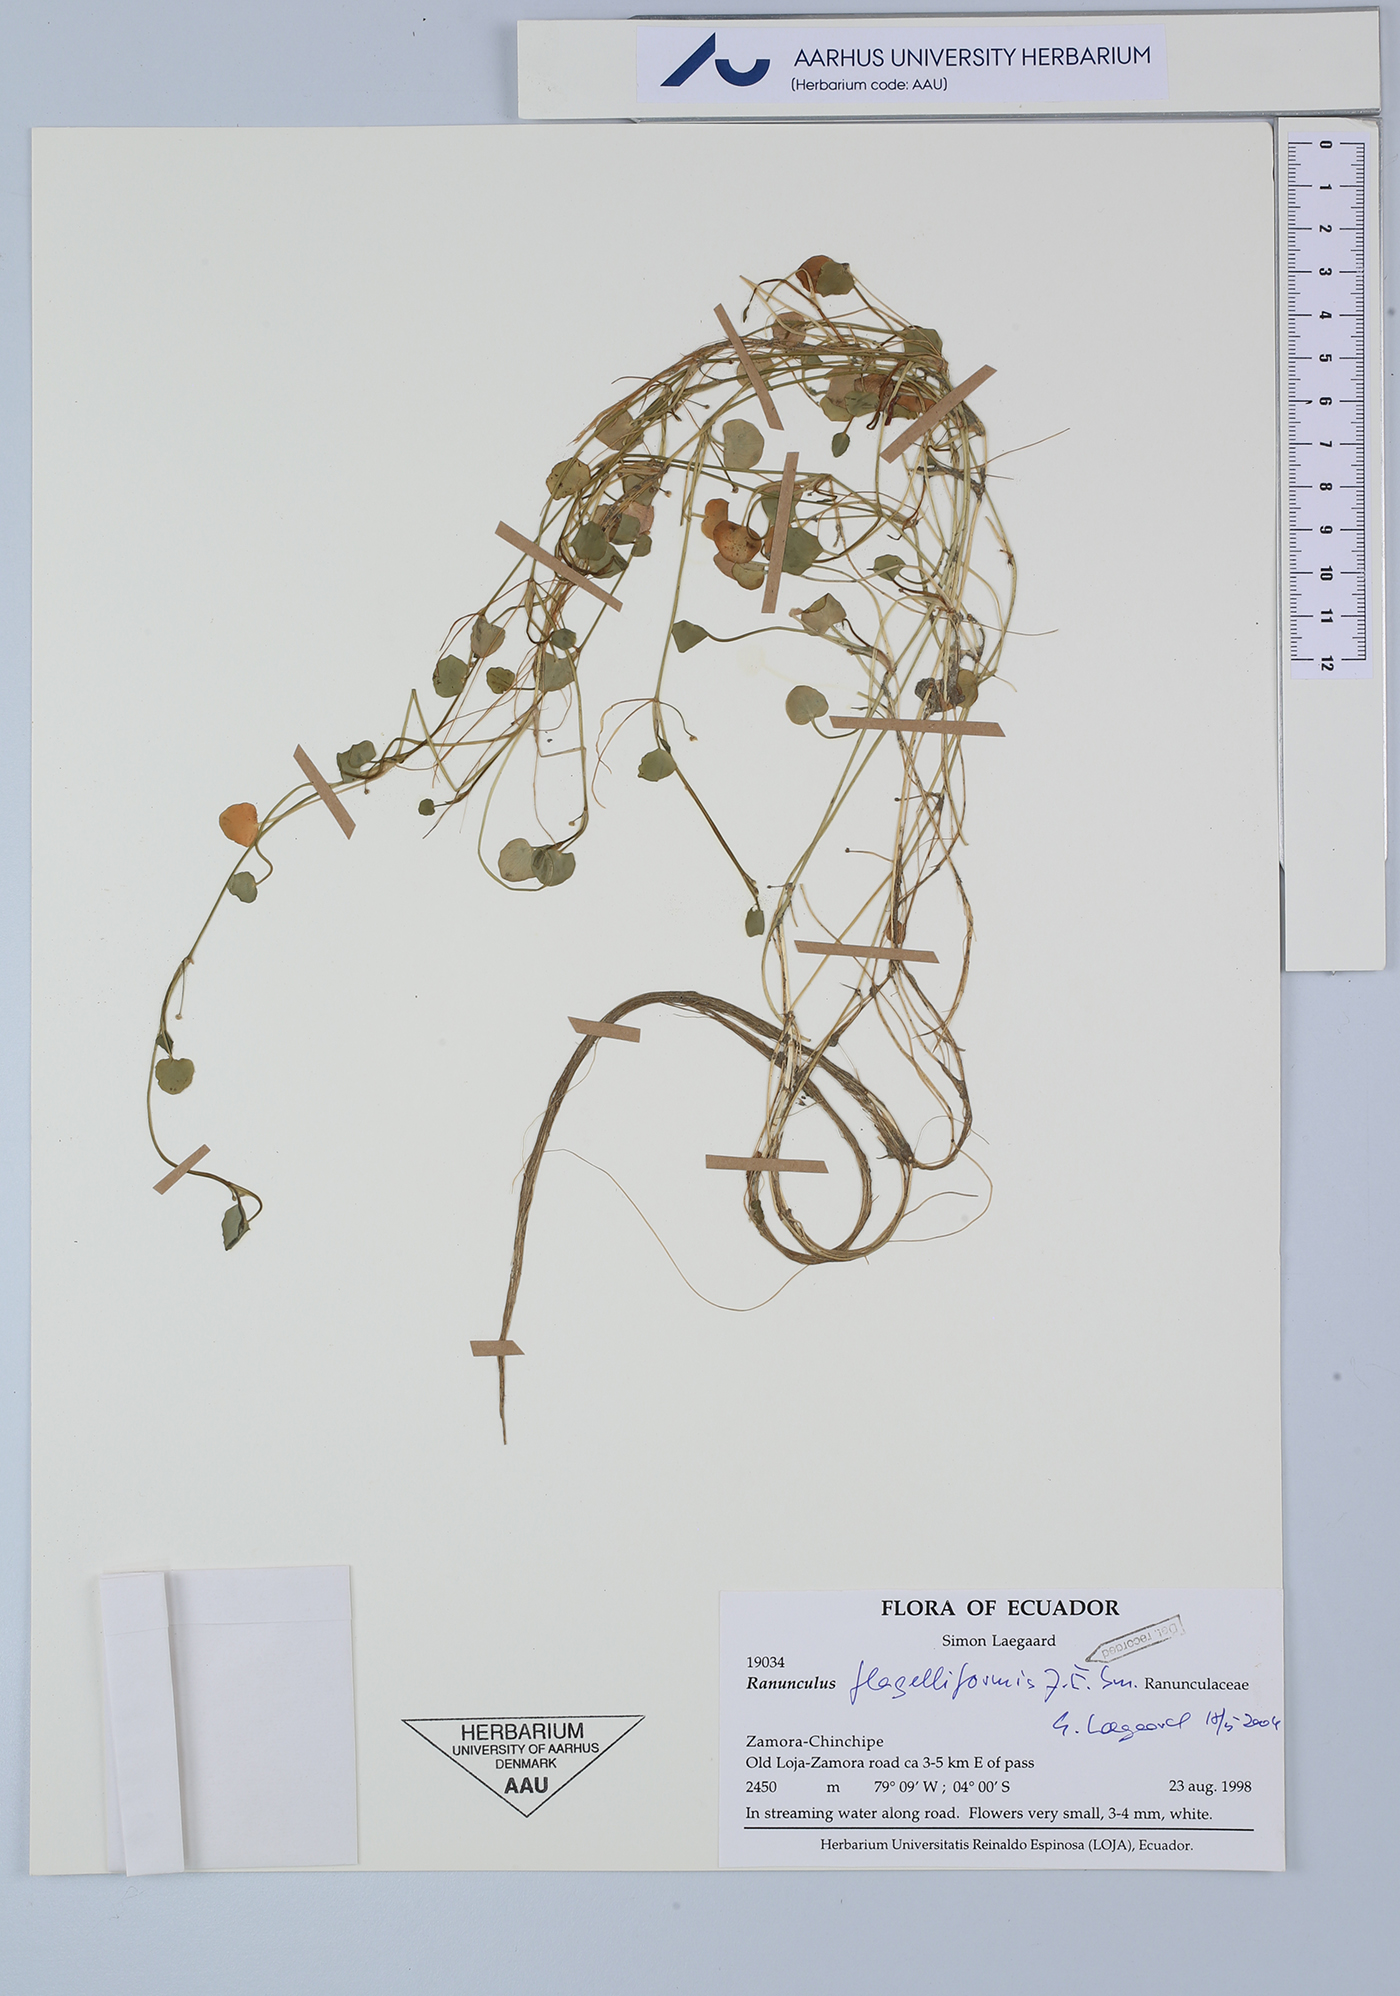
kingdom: Plantae
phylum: Tracheophyta
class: Magnoliopsida
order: Ranunculales
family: Ranunculaceae
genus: Ranunculus
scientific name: Ranunculus flagelliformis
